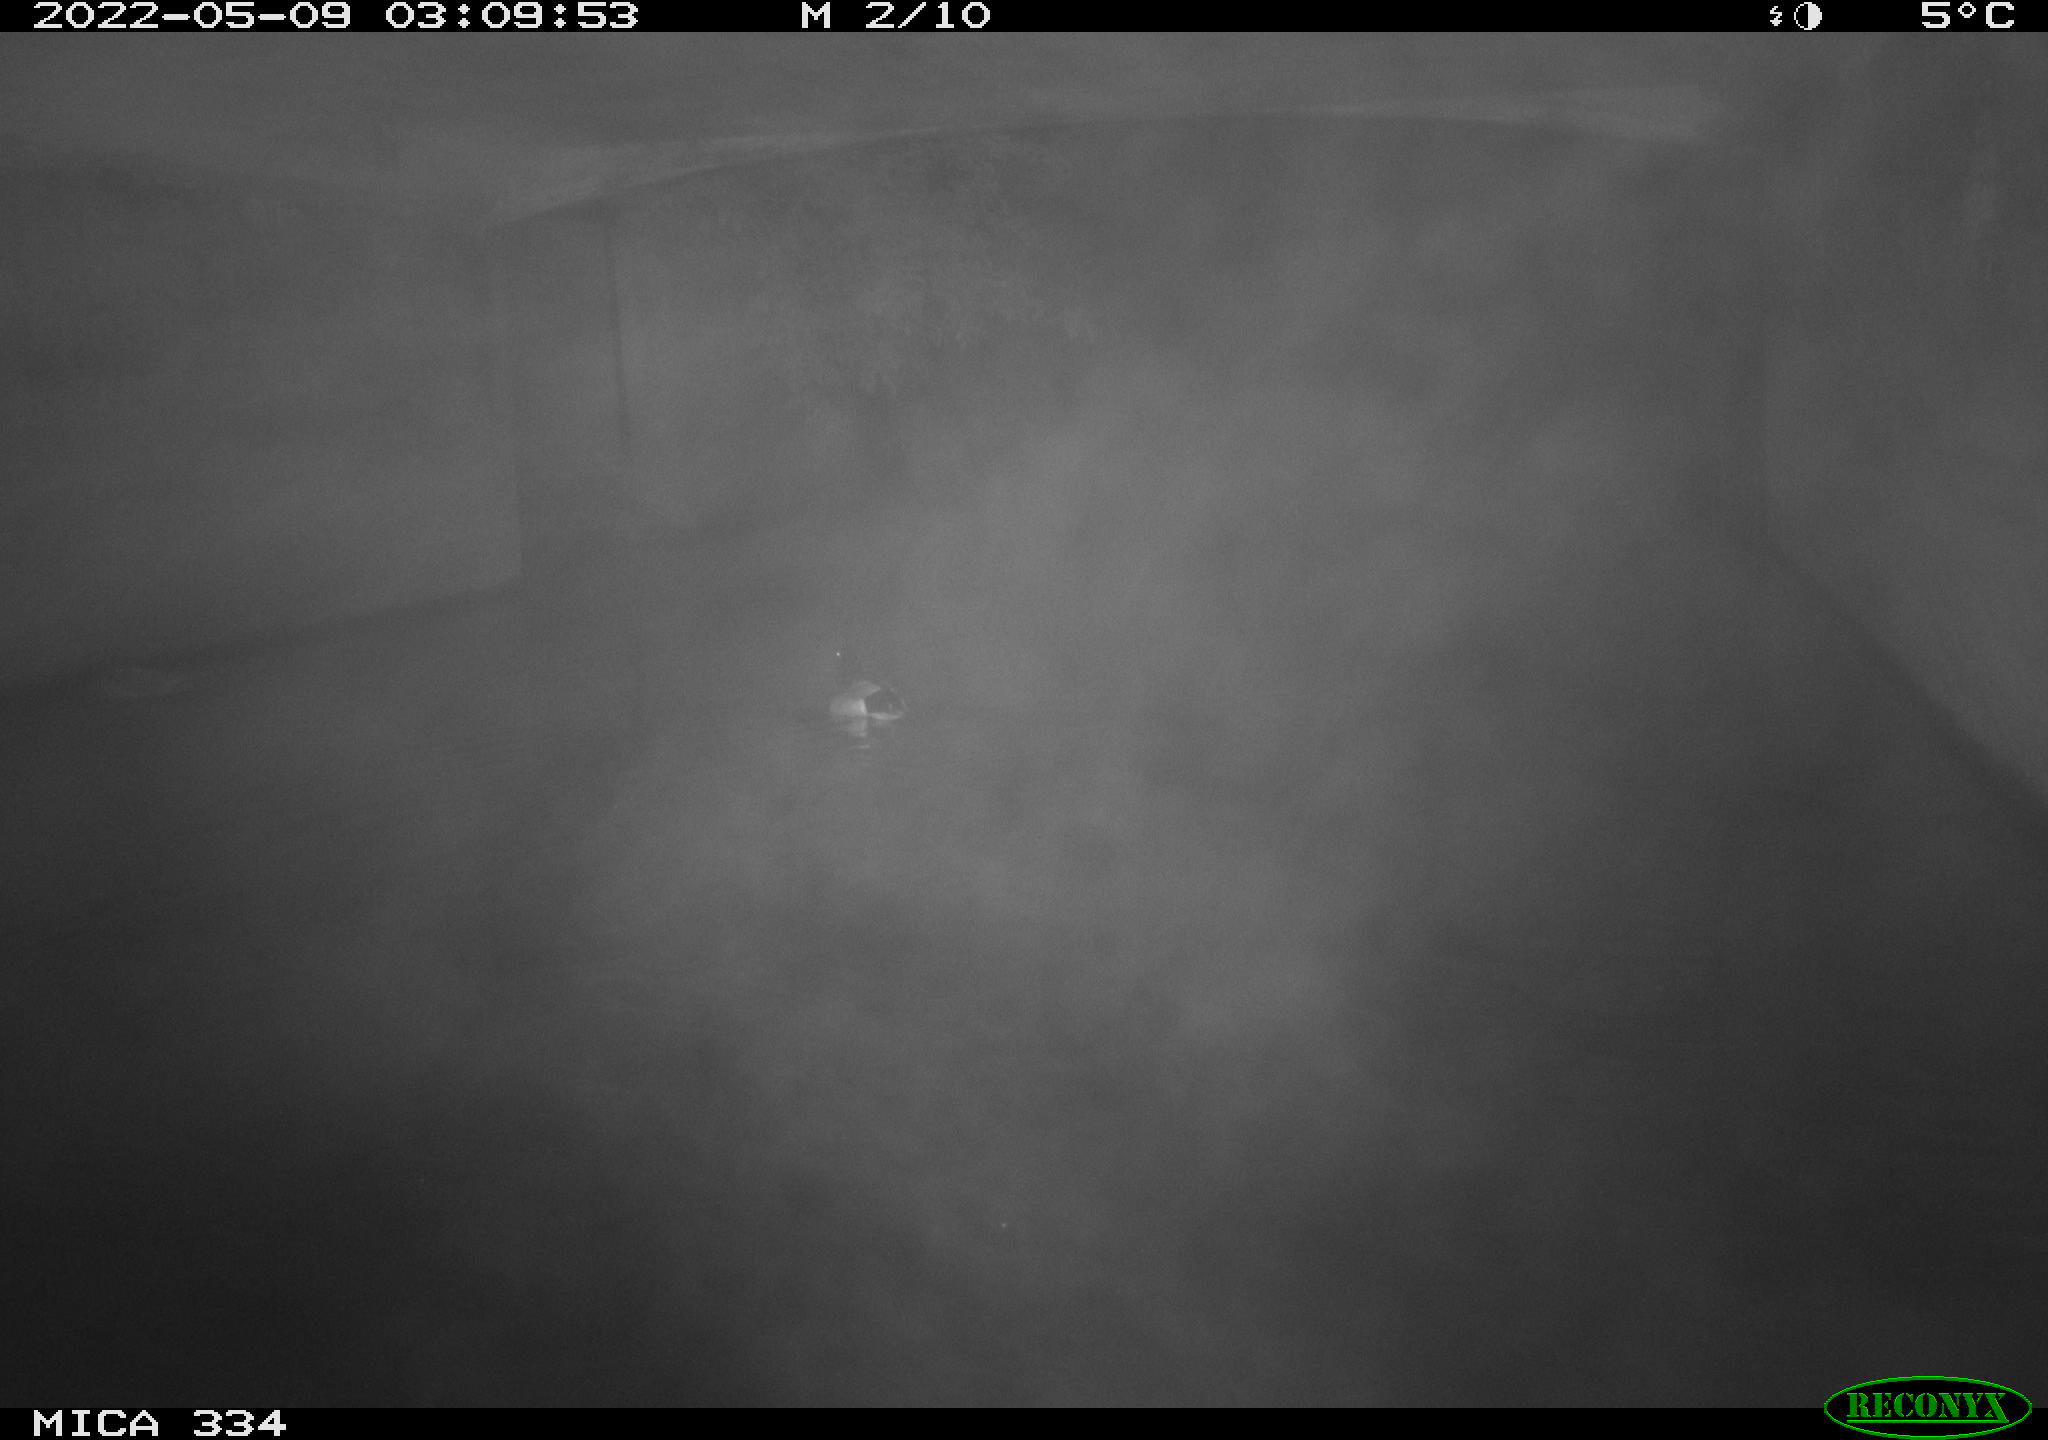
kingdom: Animalia
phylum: Chordata
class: Aves
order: Anseriformes
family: Anatidae
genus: Anas
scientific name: Anas platyrhynchos
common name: Mallard
